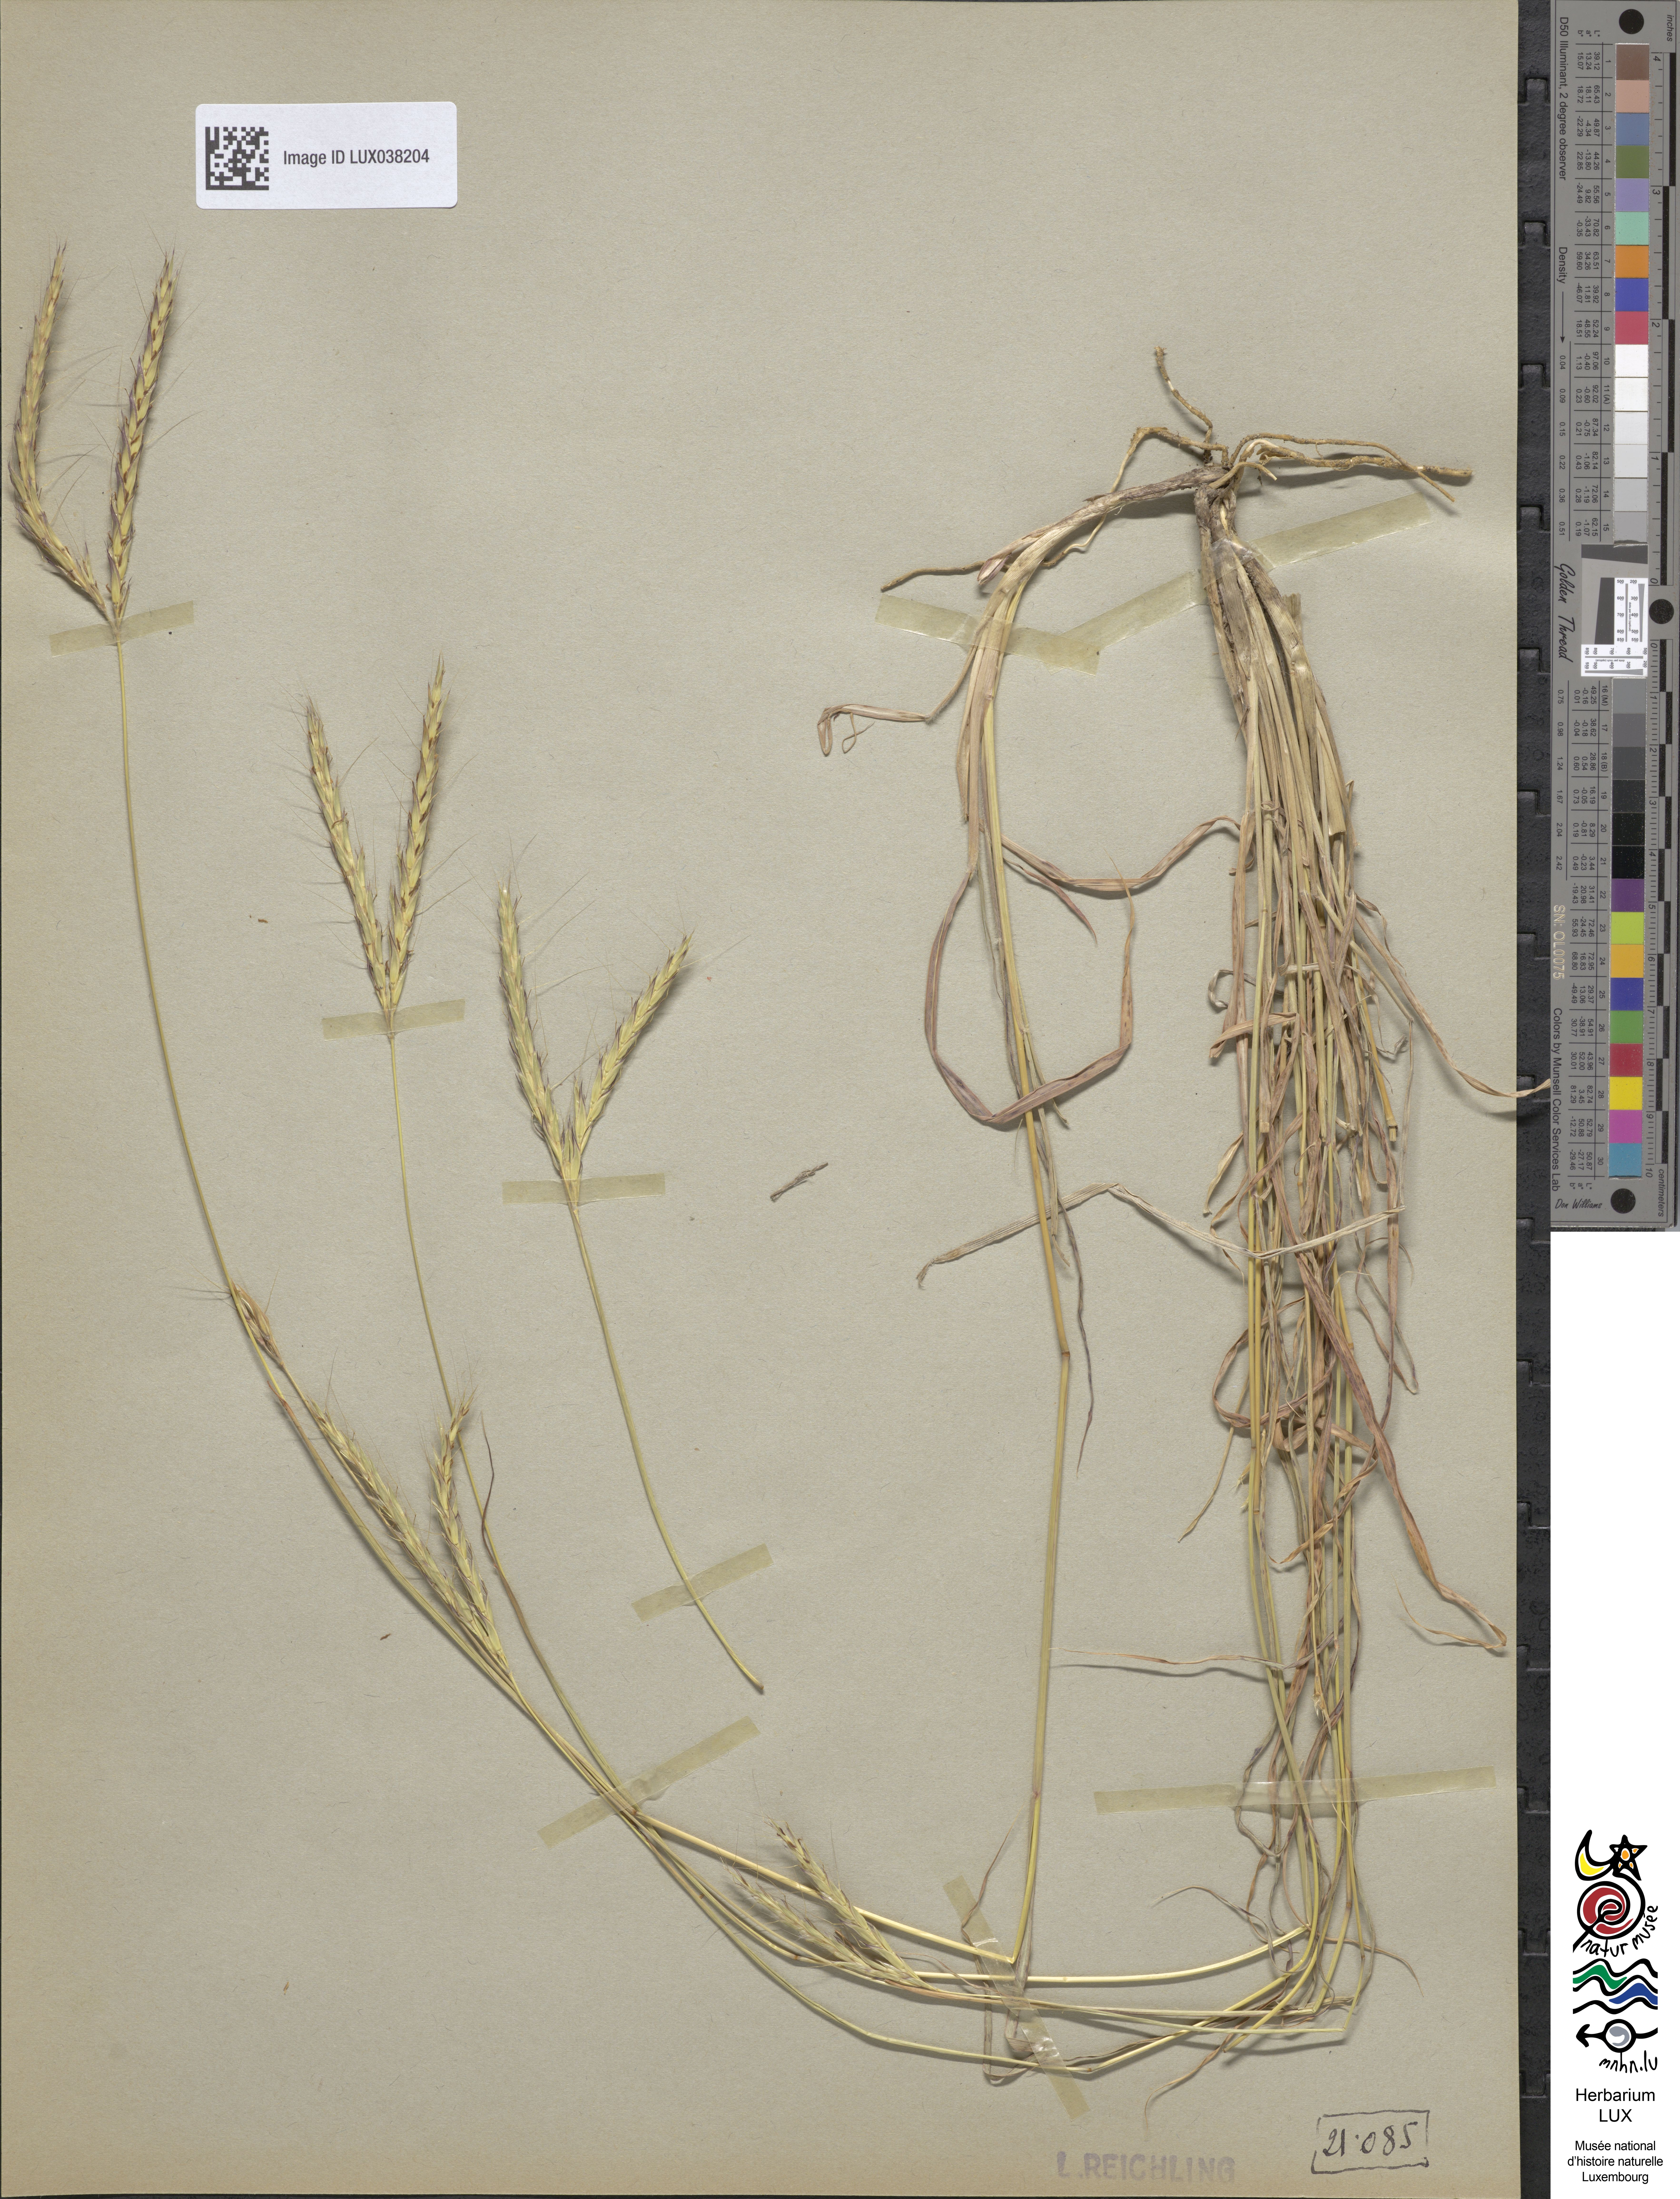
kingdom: Plantae
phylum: Tracheophyta
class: Liliopsida
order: Poales
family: Poaceae
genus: Andropogon
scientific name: Andropogon distachyos
